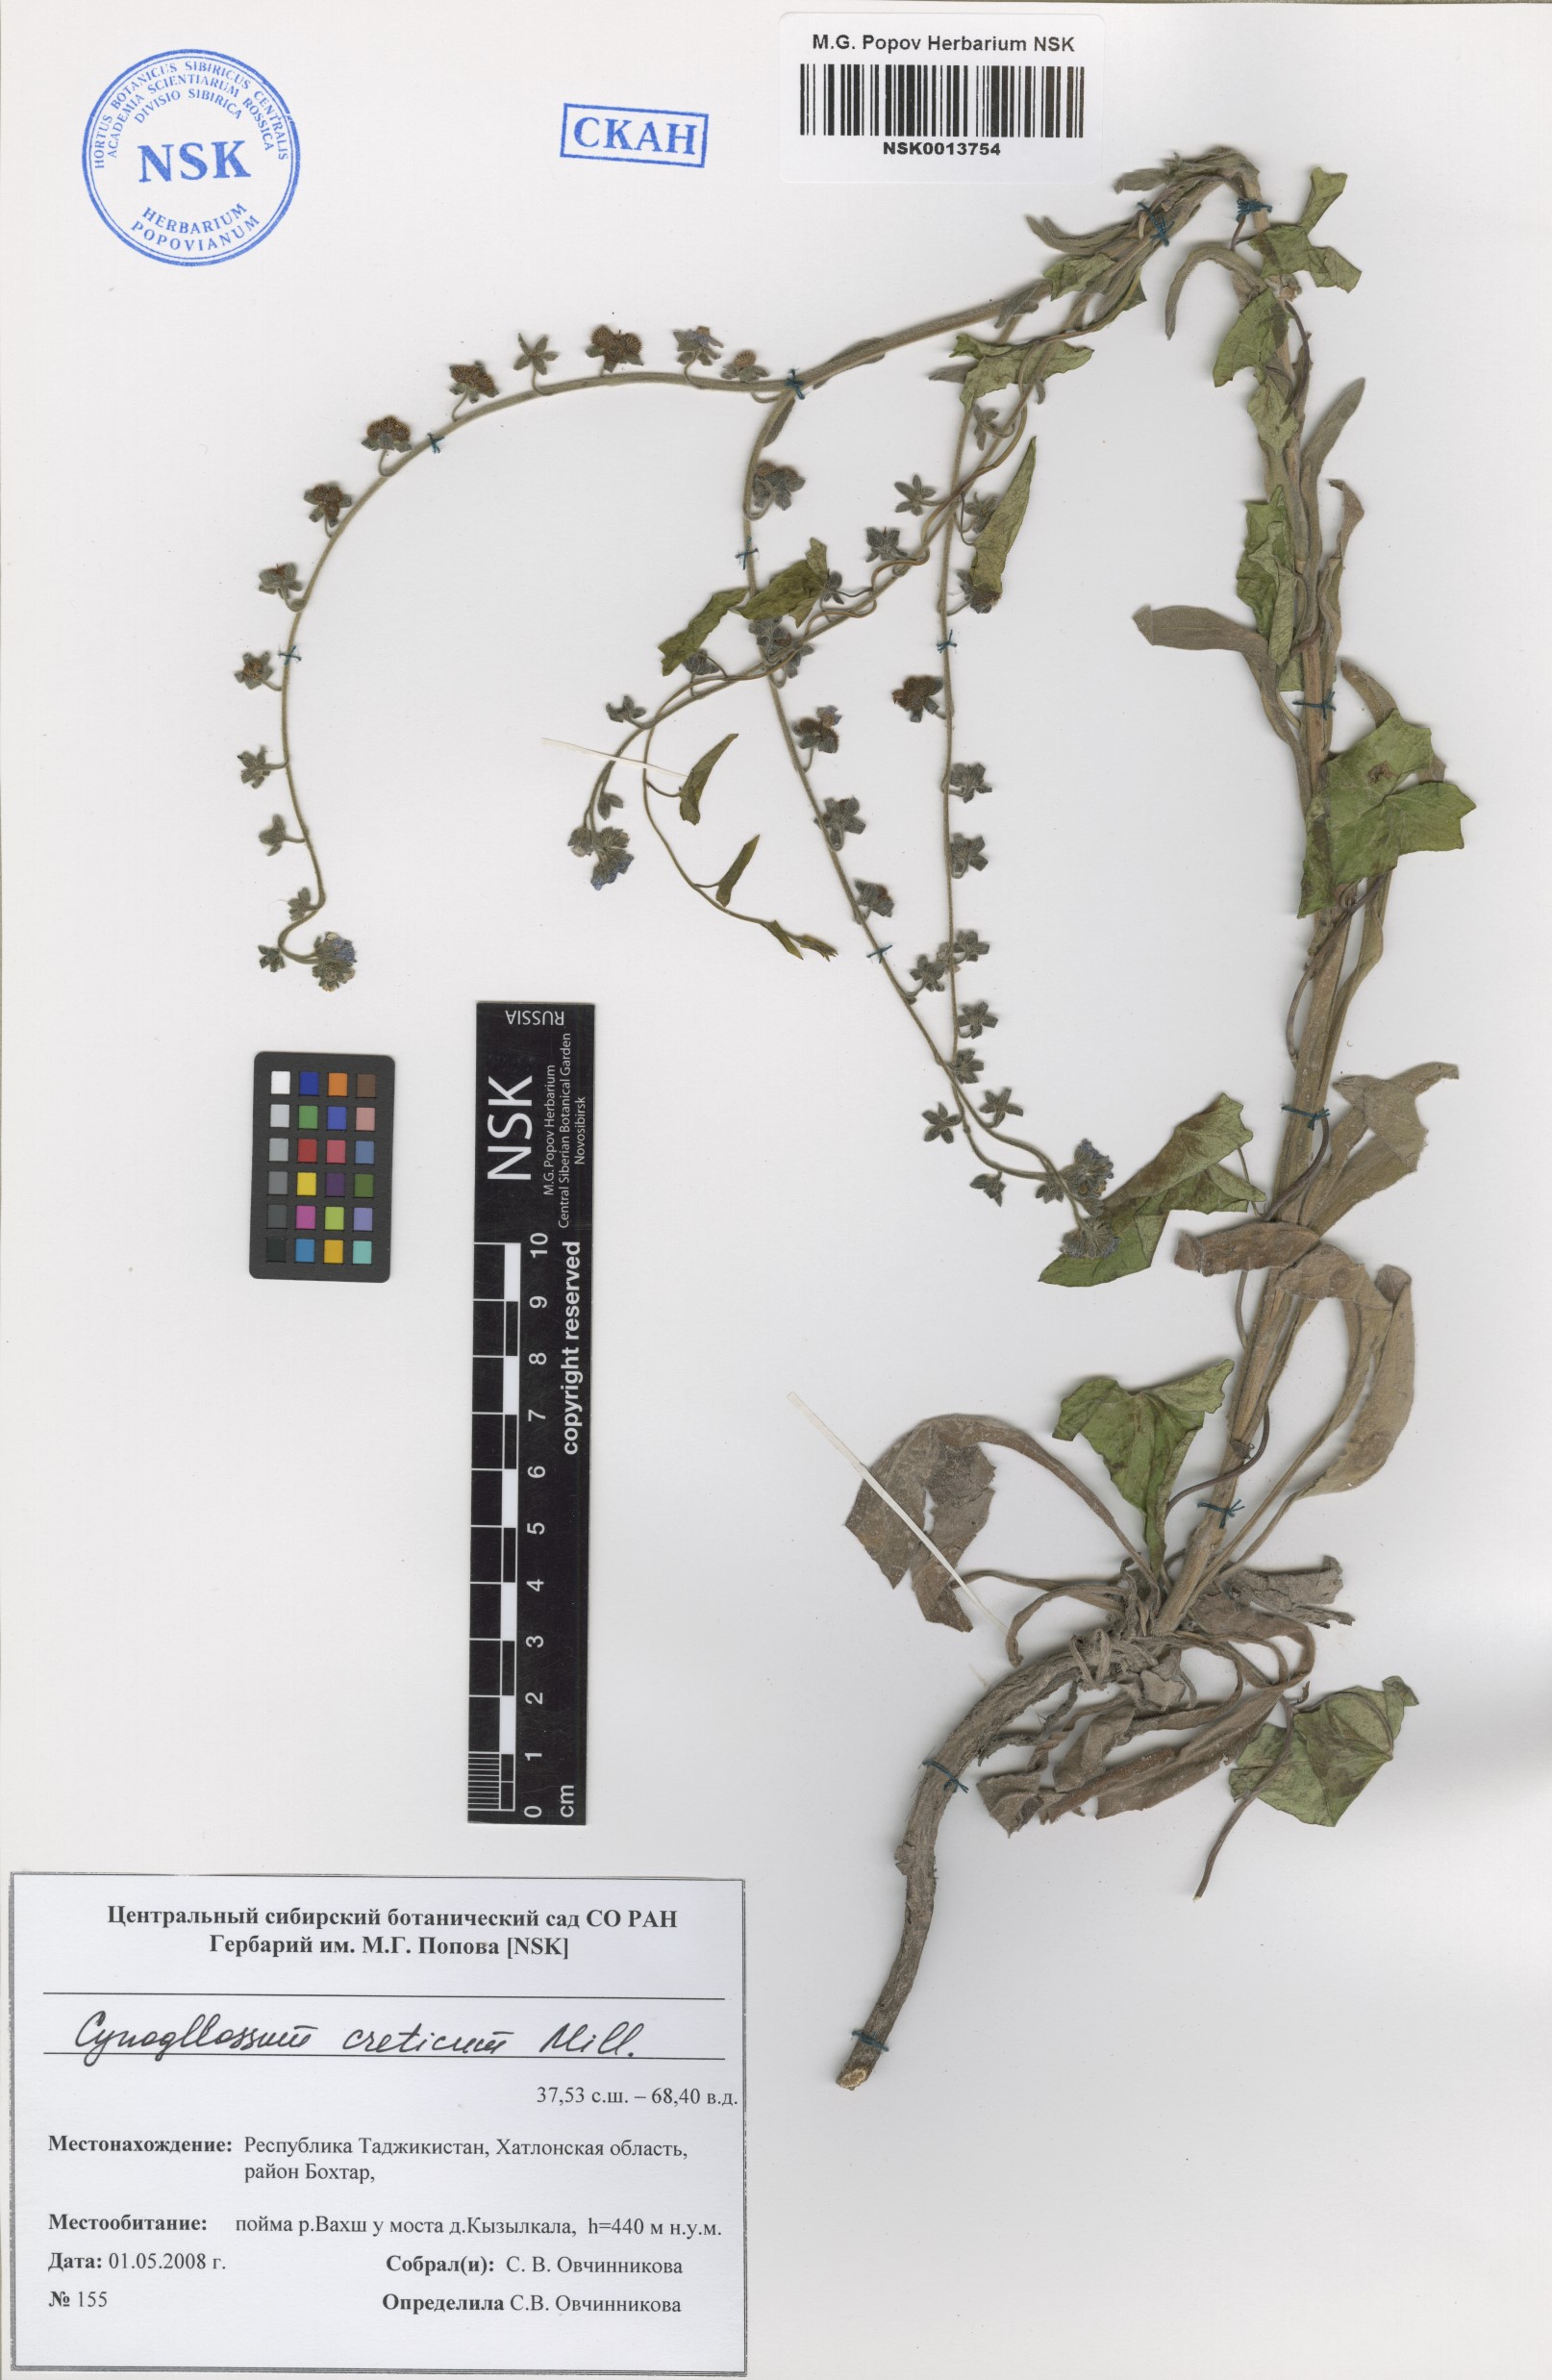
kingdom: Plantae
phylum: Tracheophyta
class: Magnoliopsida
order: Boraginales
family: Boraginaceae
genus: Cynoglossum
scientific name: Cynoglossum creticum
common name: Blue hound's tongue
